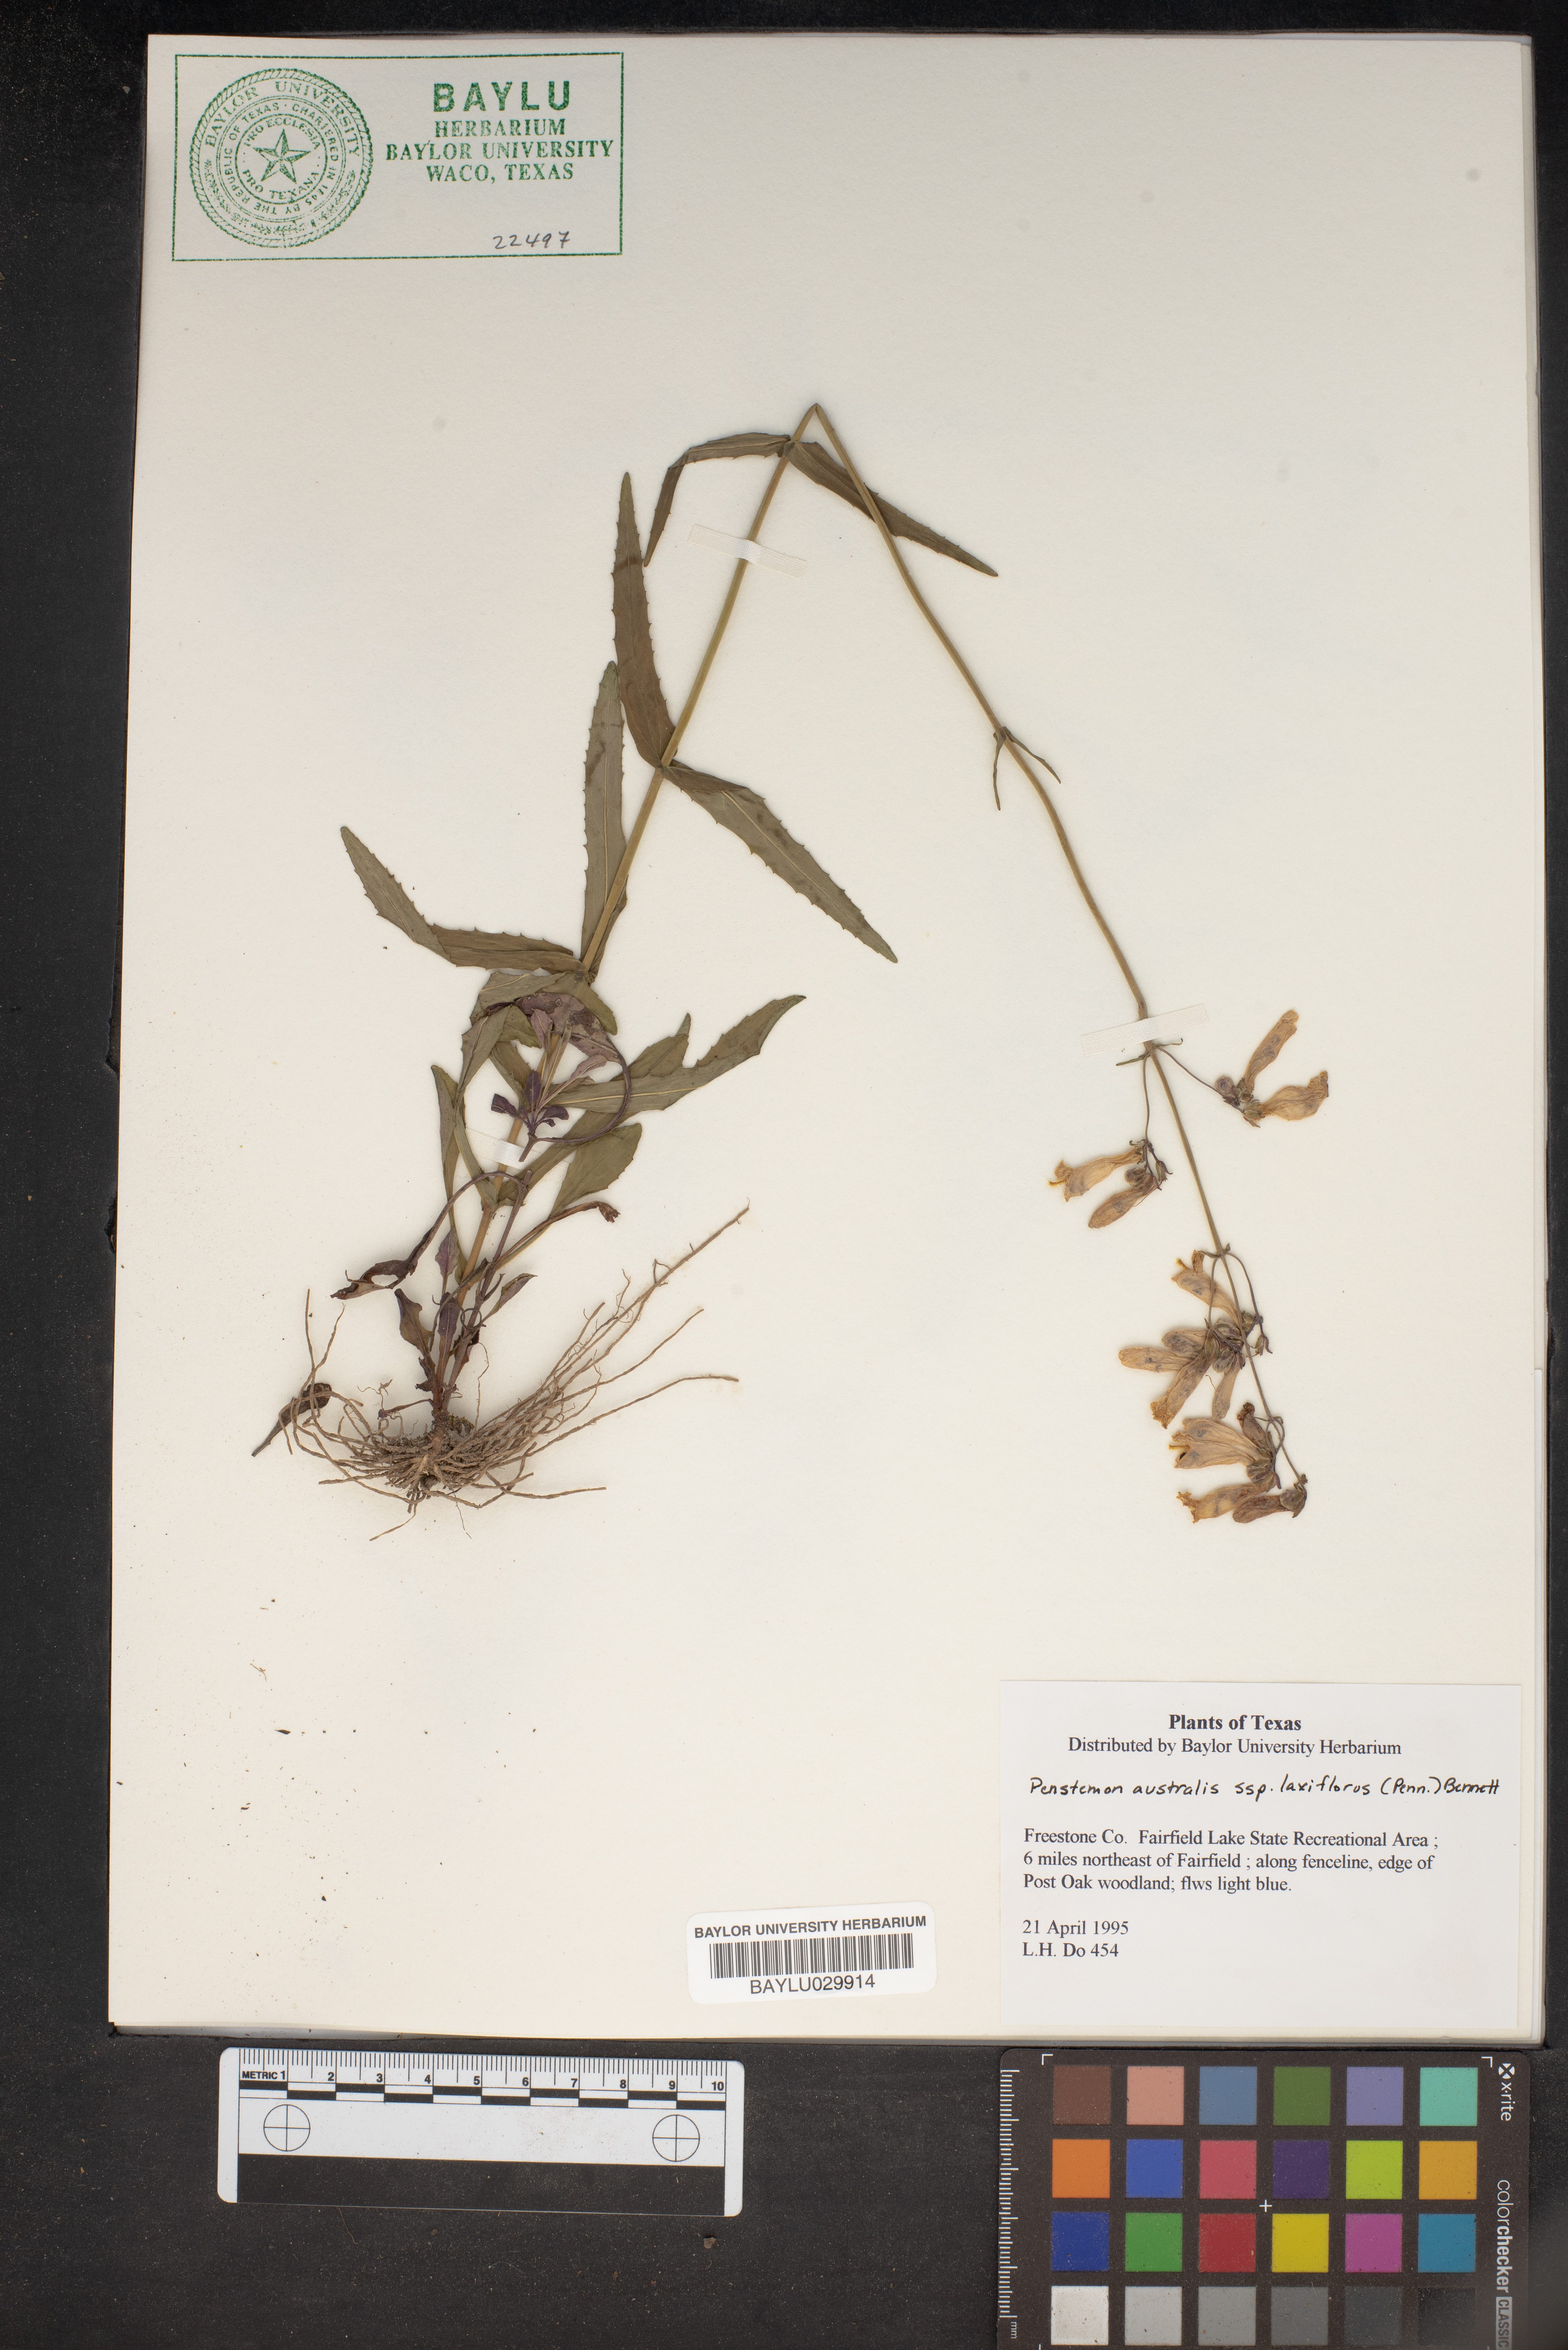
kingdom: Plantae
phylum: Tracheophyta
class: Magnoliopsida
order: Lamiales
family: Plantaginaceae
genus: Penstemon
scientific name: Penstemon australis
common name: Southeastern beardtongue
